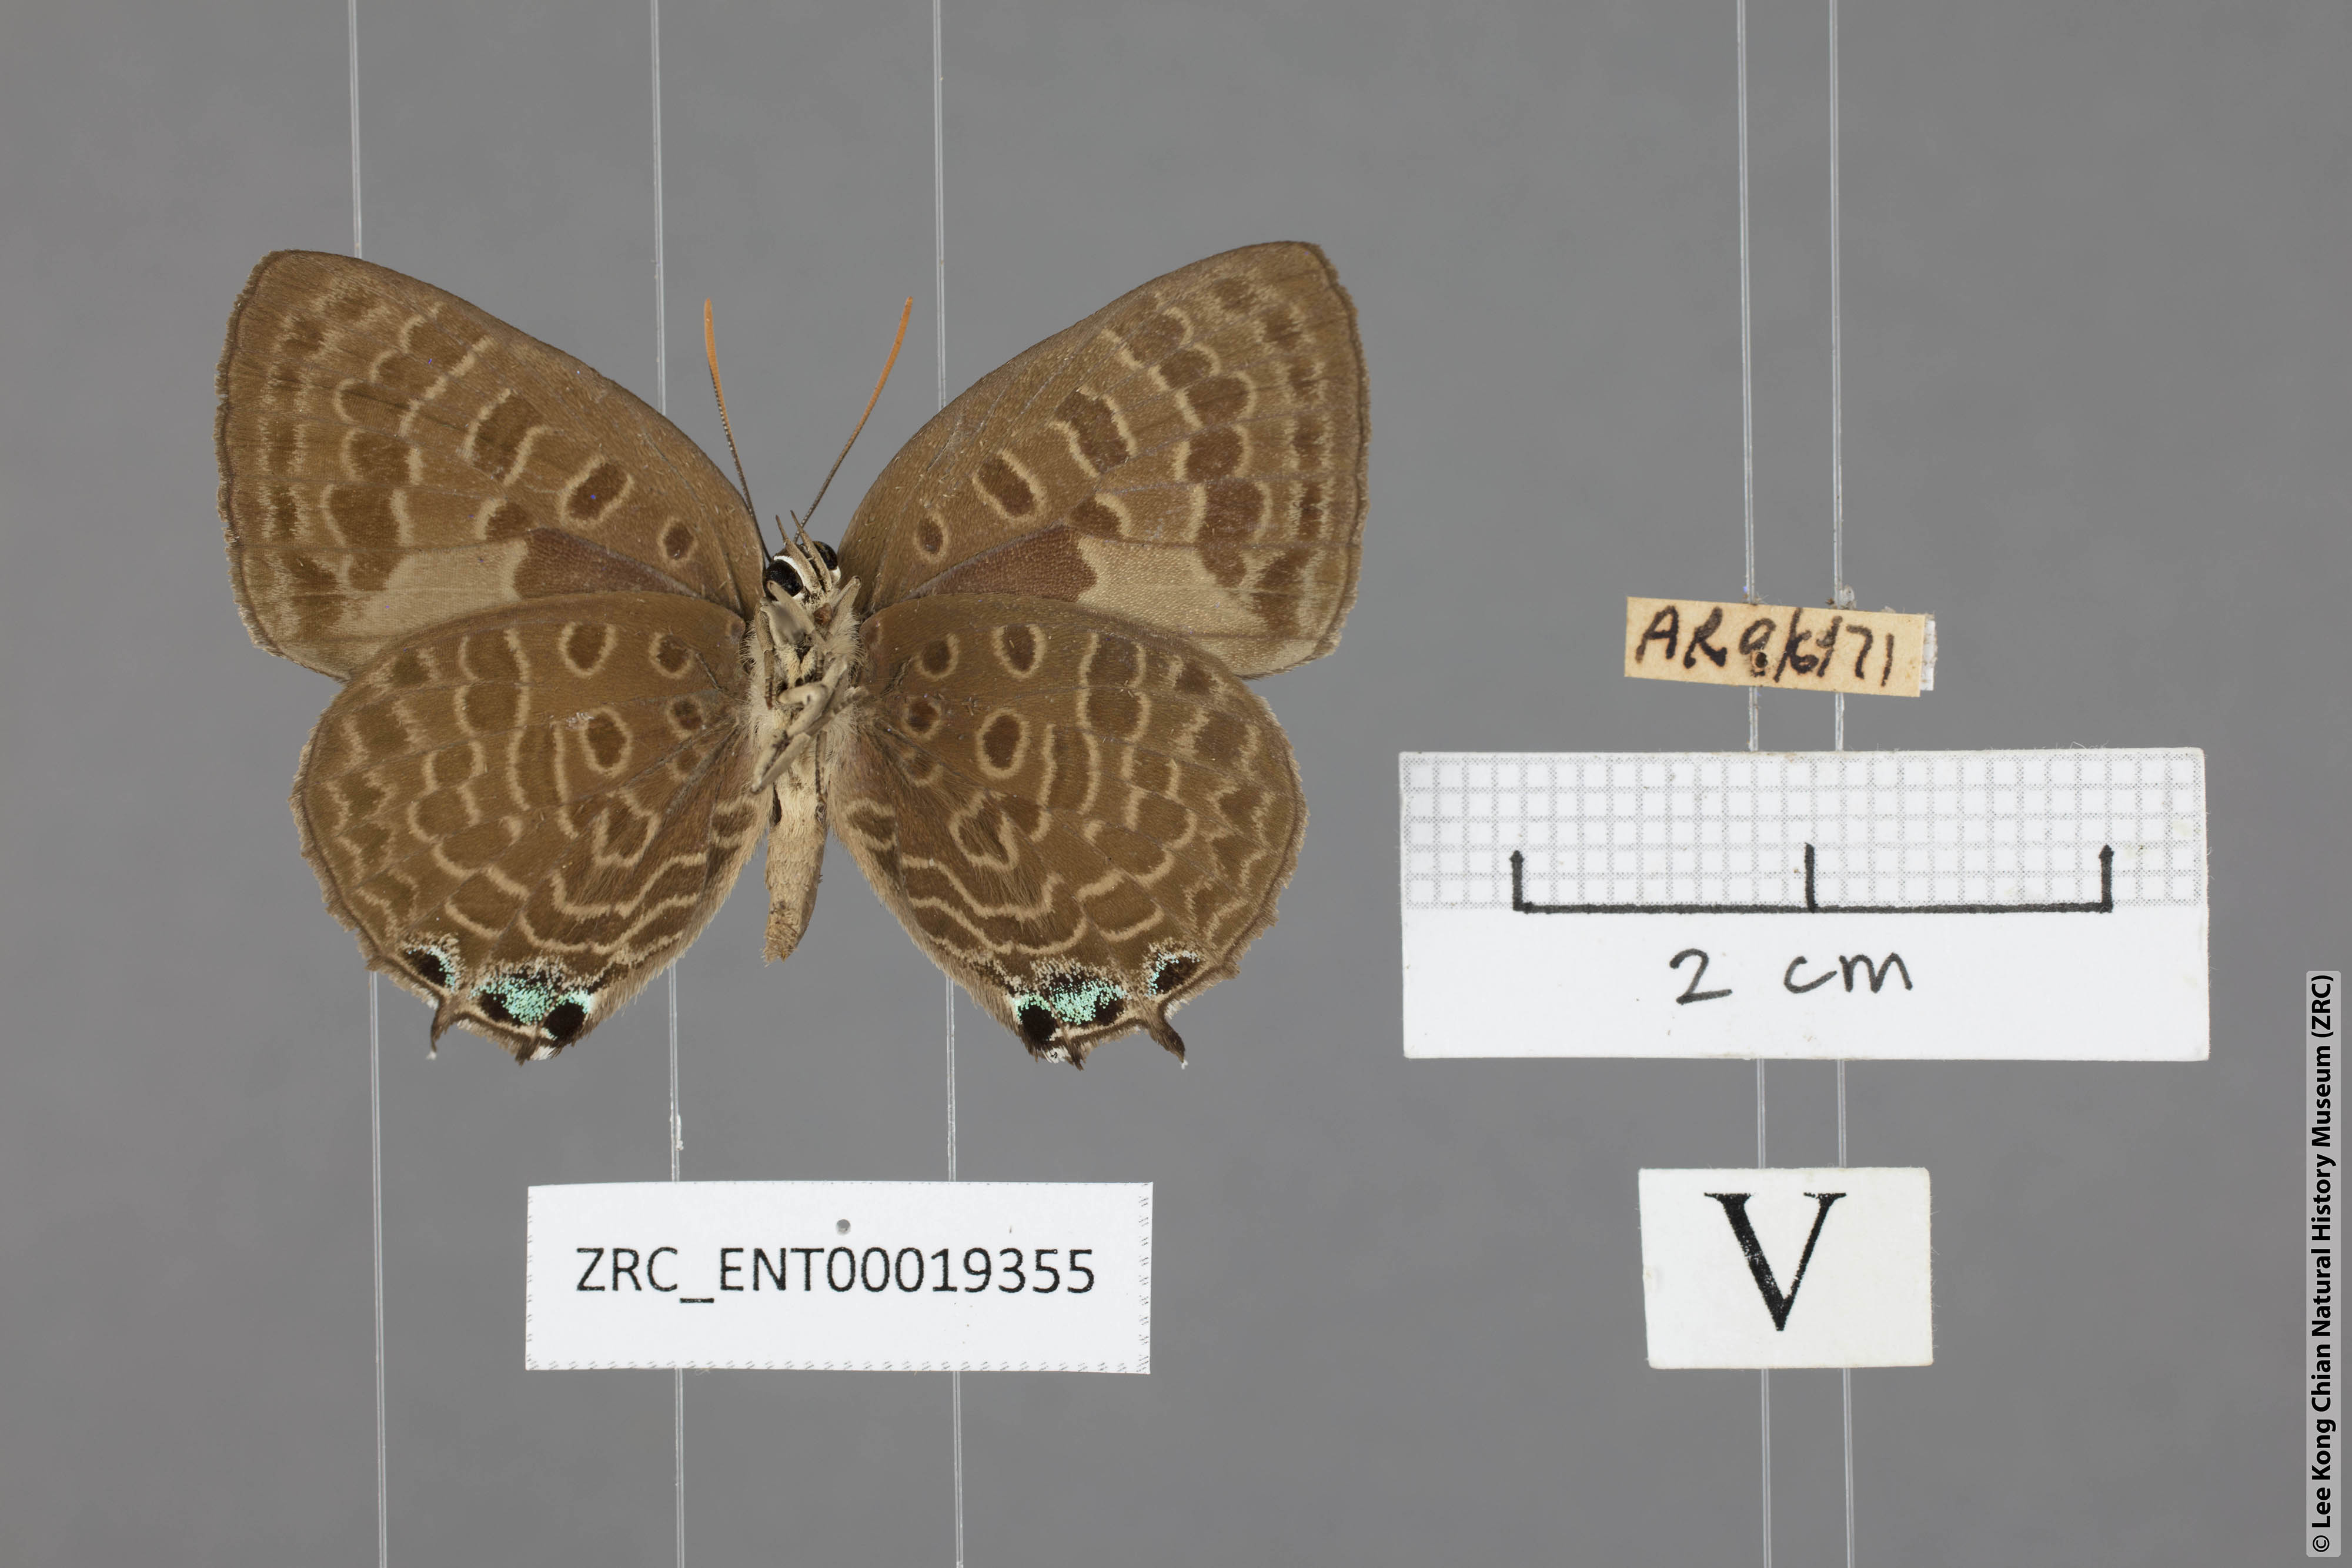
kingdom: Animalia
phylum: Arthropoda
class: Insecta
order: Lepidoptera
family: Lycaenidae
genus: Arhopala
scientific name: Arhopala corinda
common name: Ultramarine oakblue
